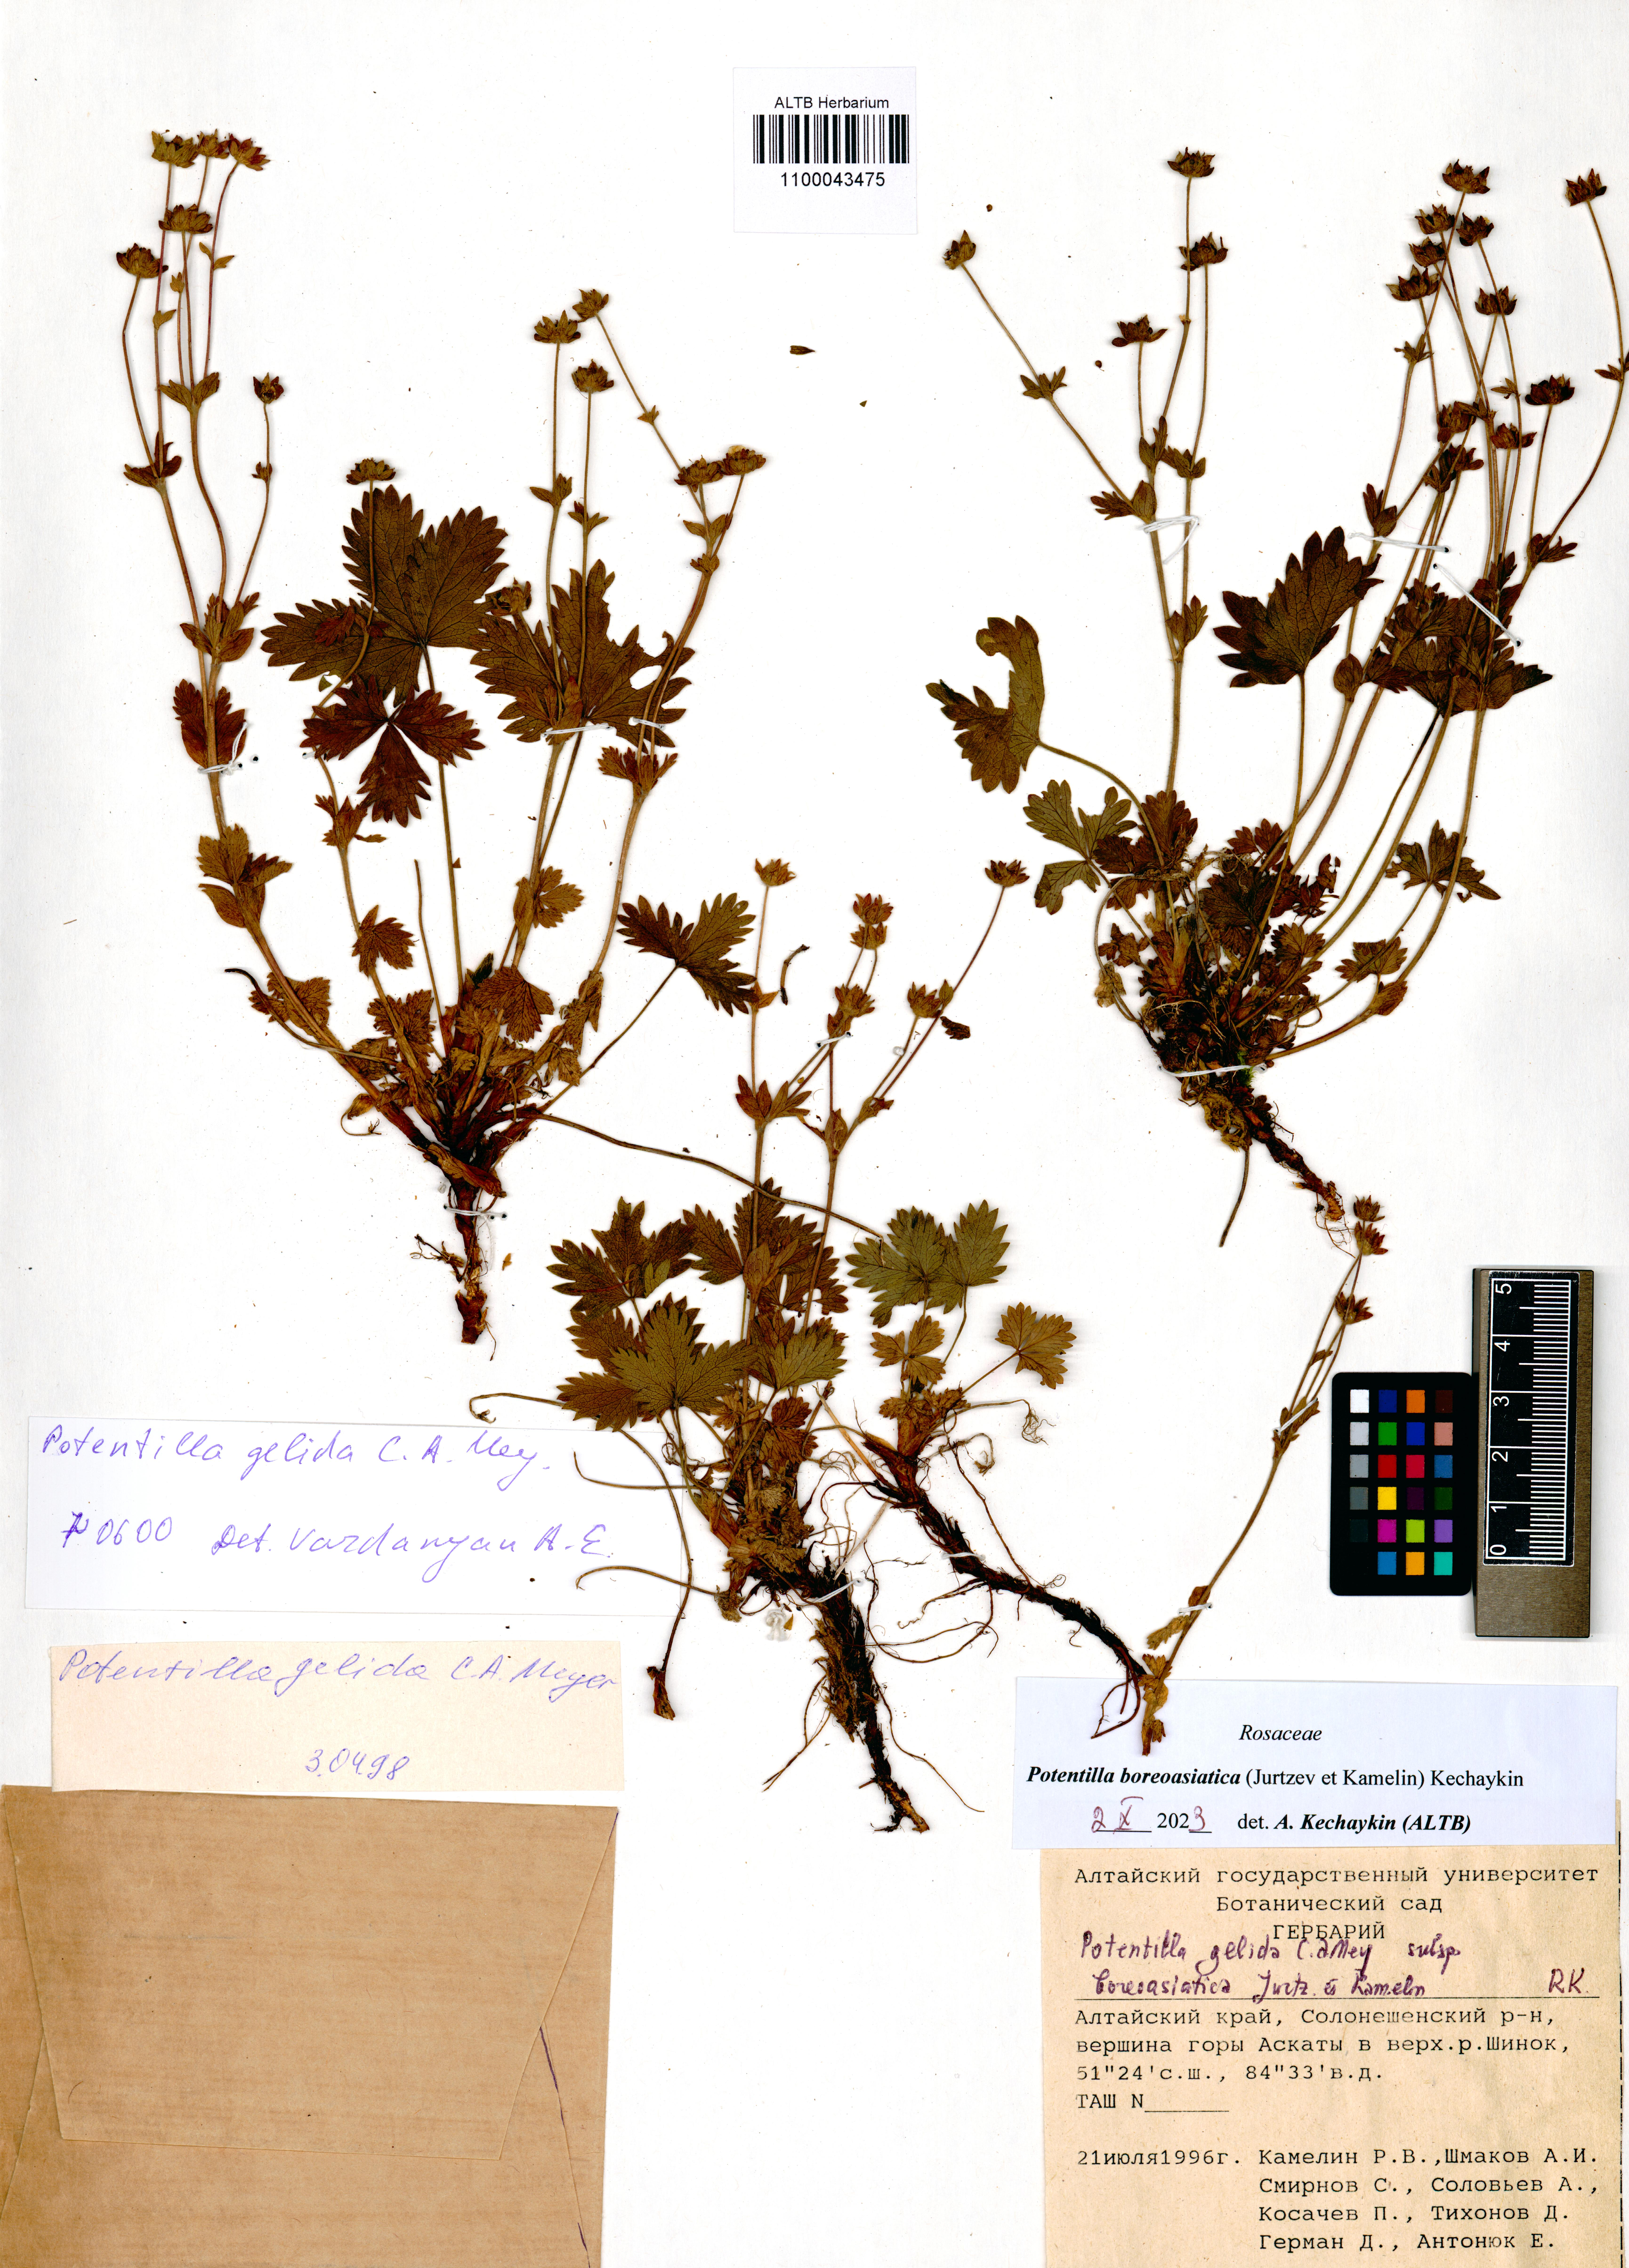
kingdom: Plantae
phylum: Tracheophyta
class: Magnoliopsida
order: Rosales
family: Rosaceae
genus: Potentilla
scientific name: Potentilla
